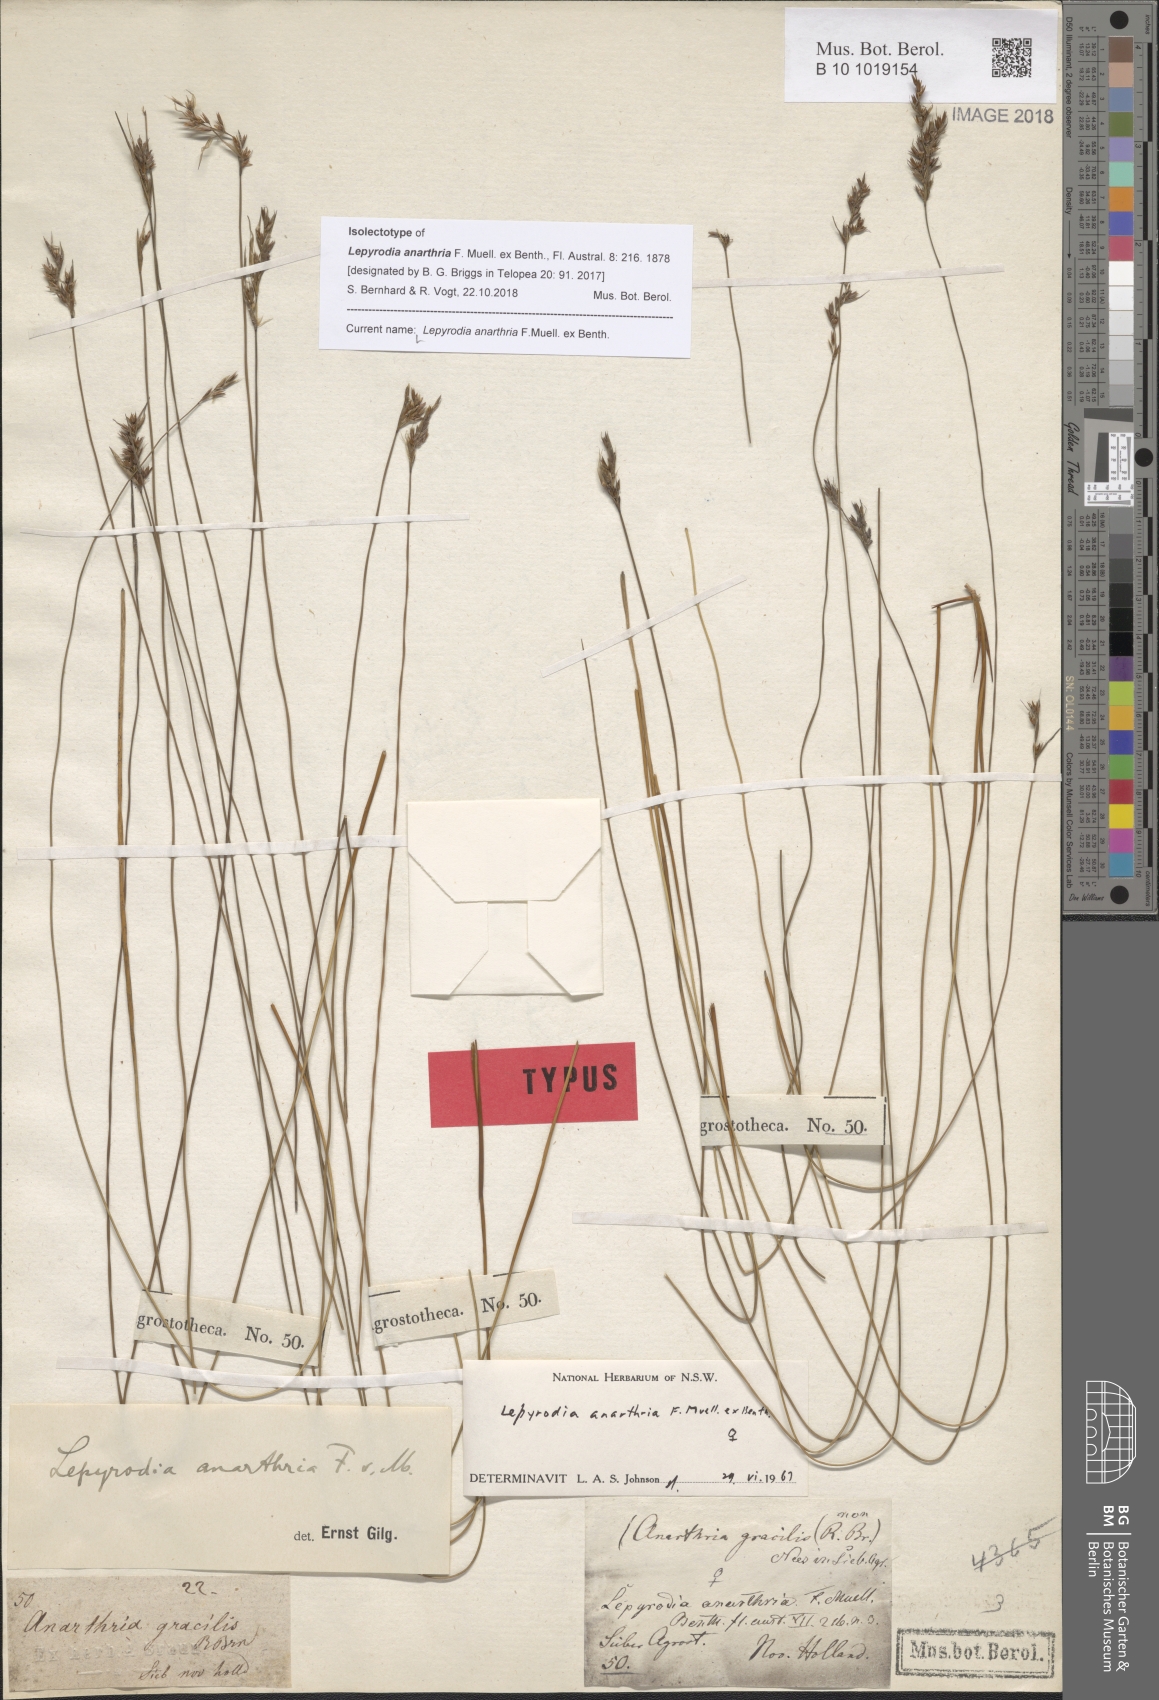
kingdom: Plantae
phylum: Tracheophyta
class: Liliopsida
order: Poales
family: Restionaceae
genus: Lepyrodia
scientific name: Lepyrodia anarthria
